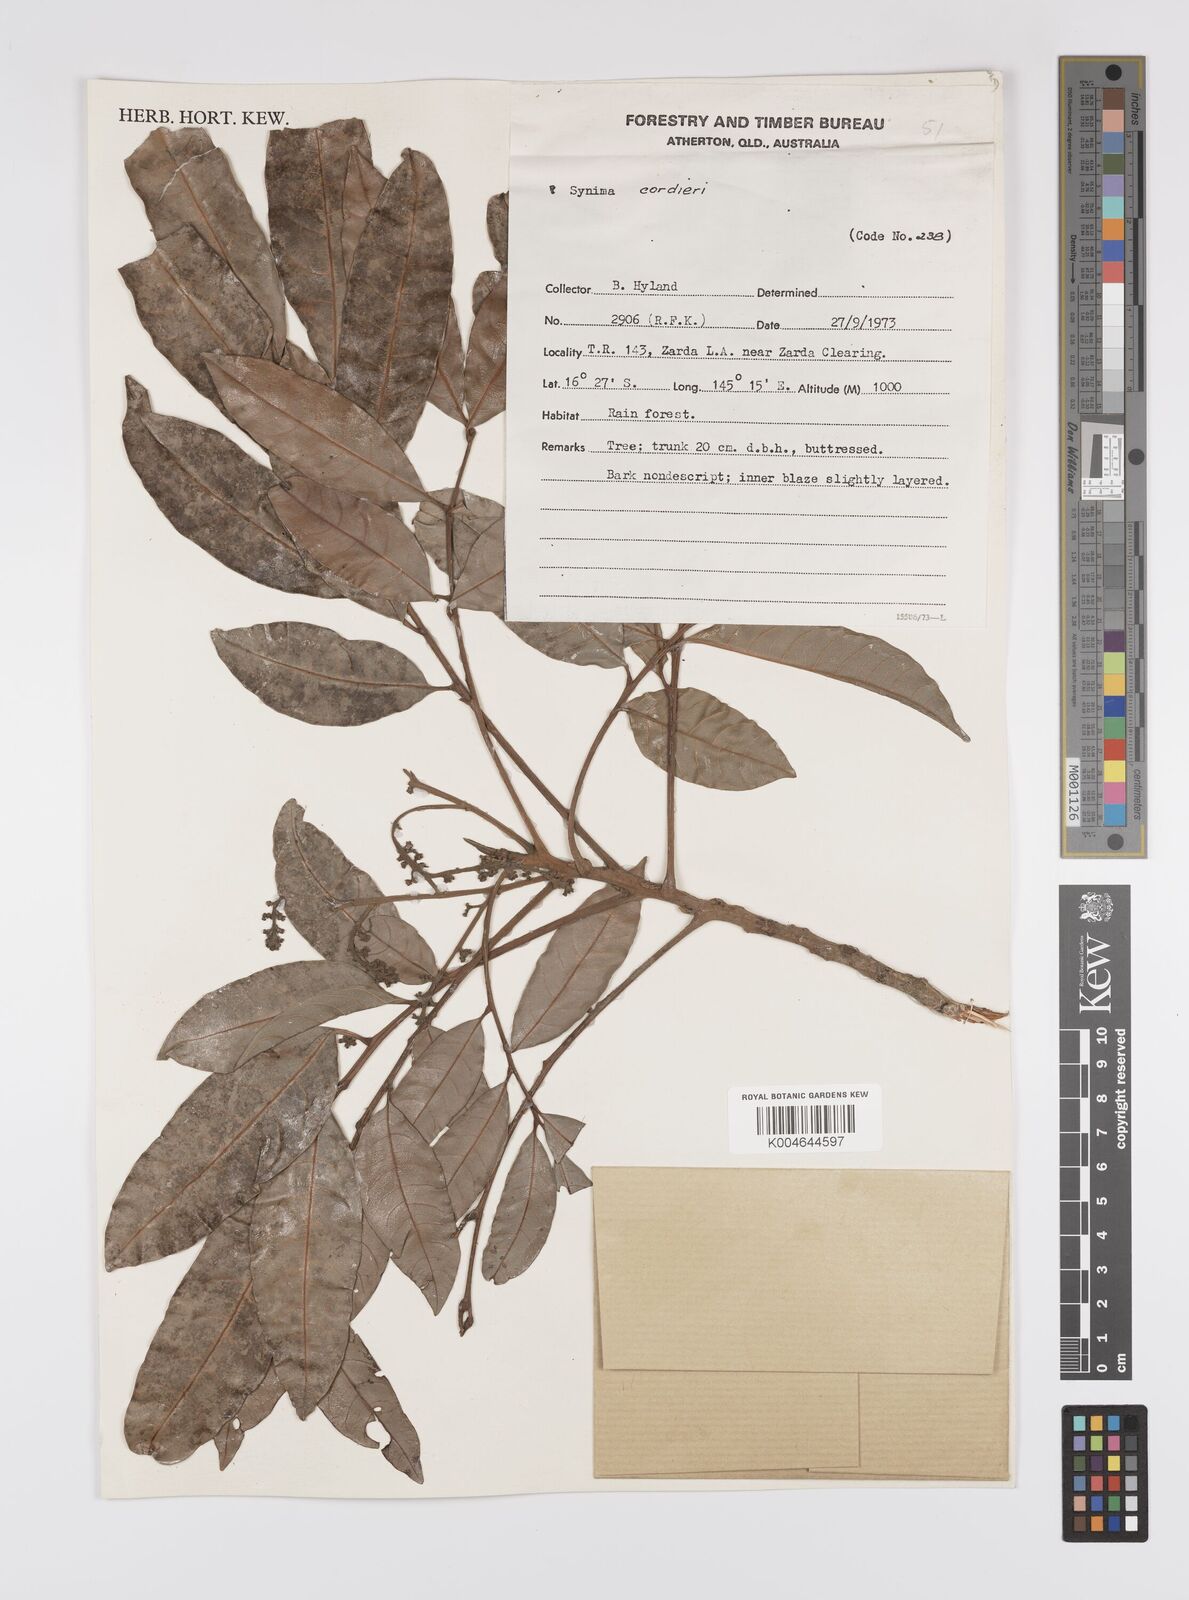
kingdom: Plantae
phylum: Tracheophyta
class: Magnoliopsida
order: Sapindales
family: Sapindaceae
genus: Synima
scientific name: Synima
